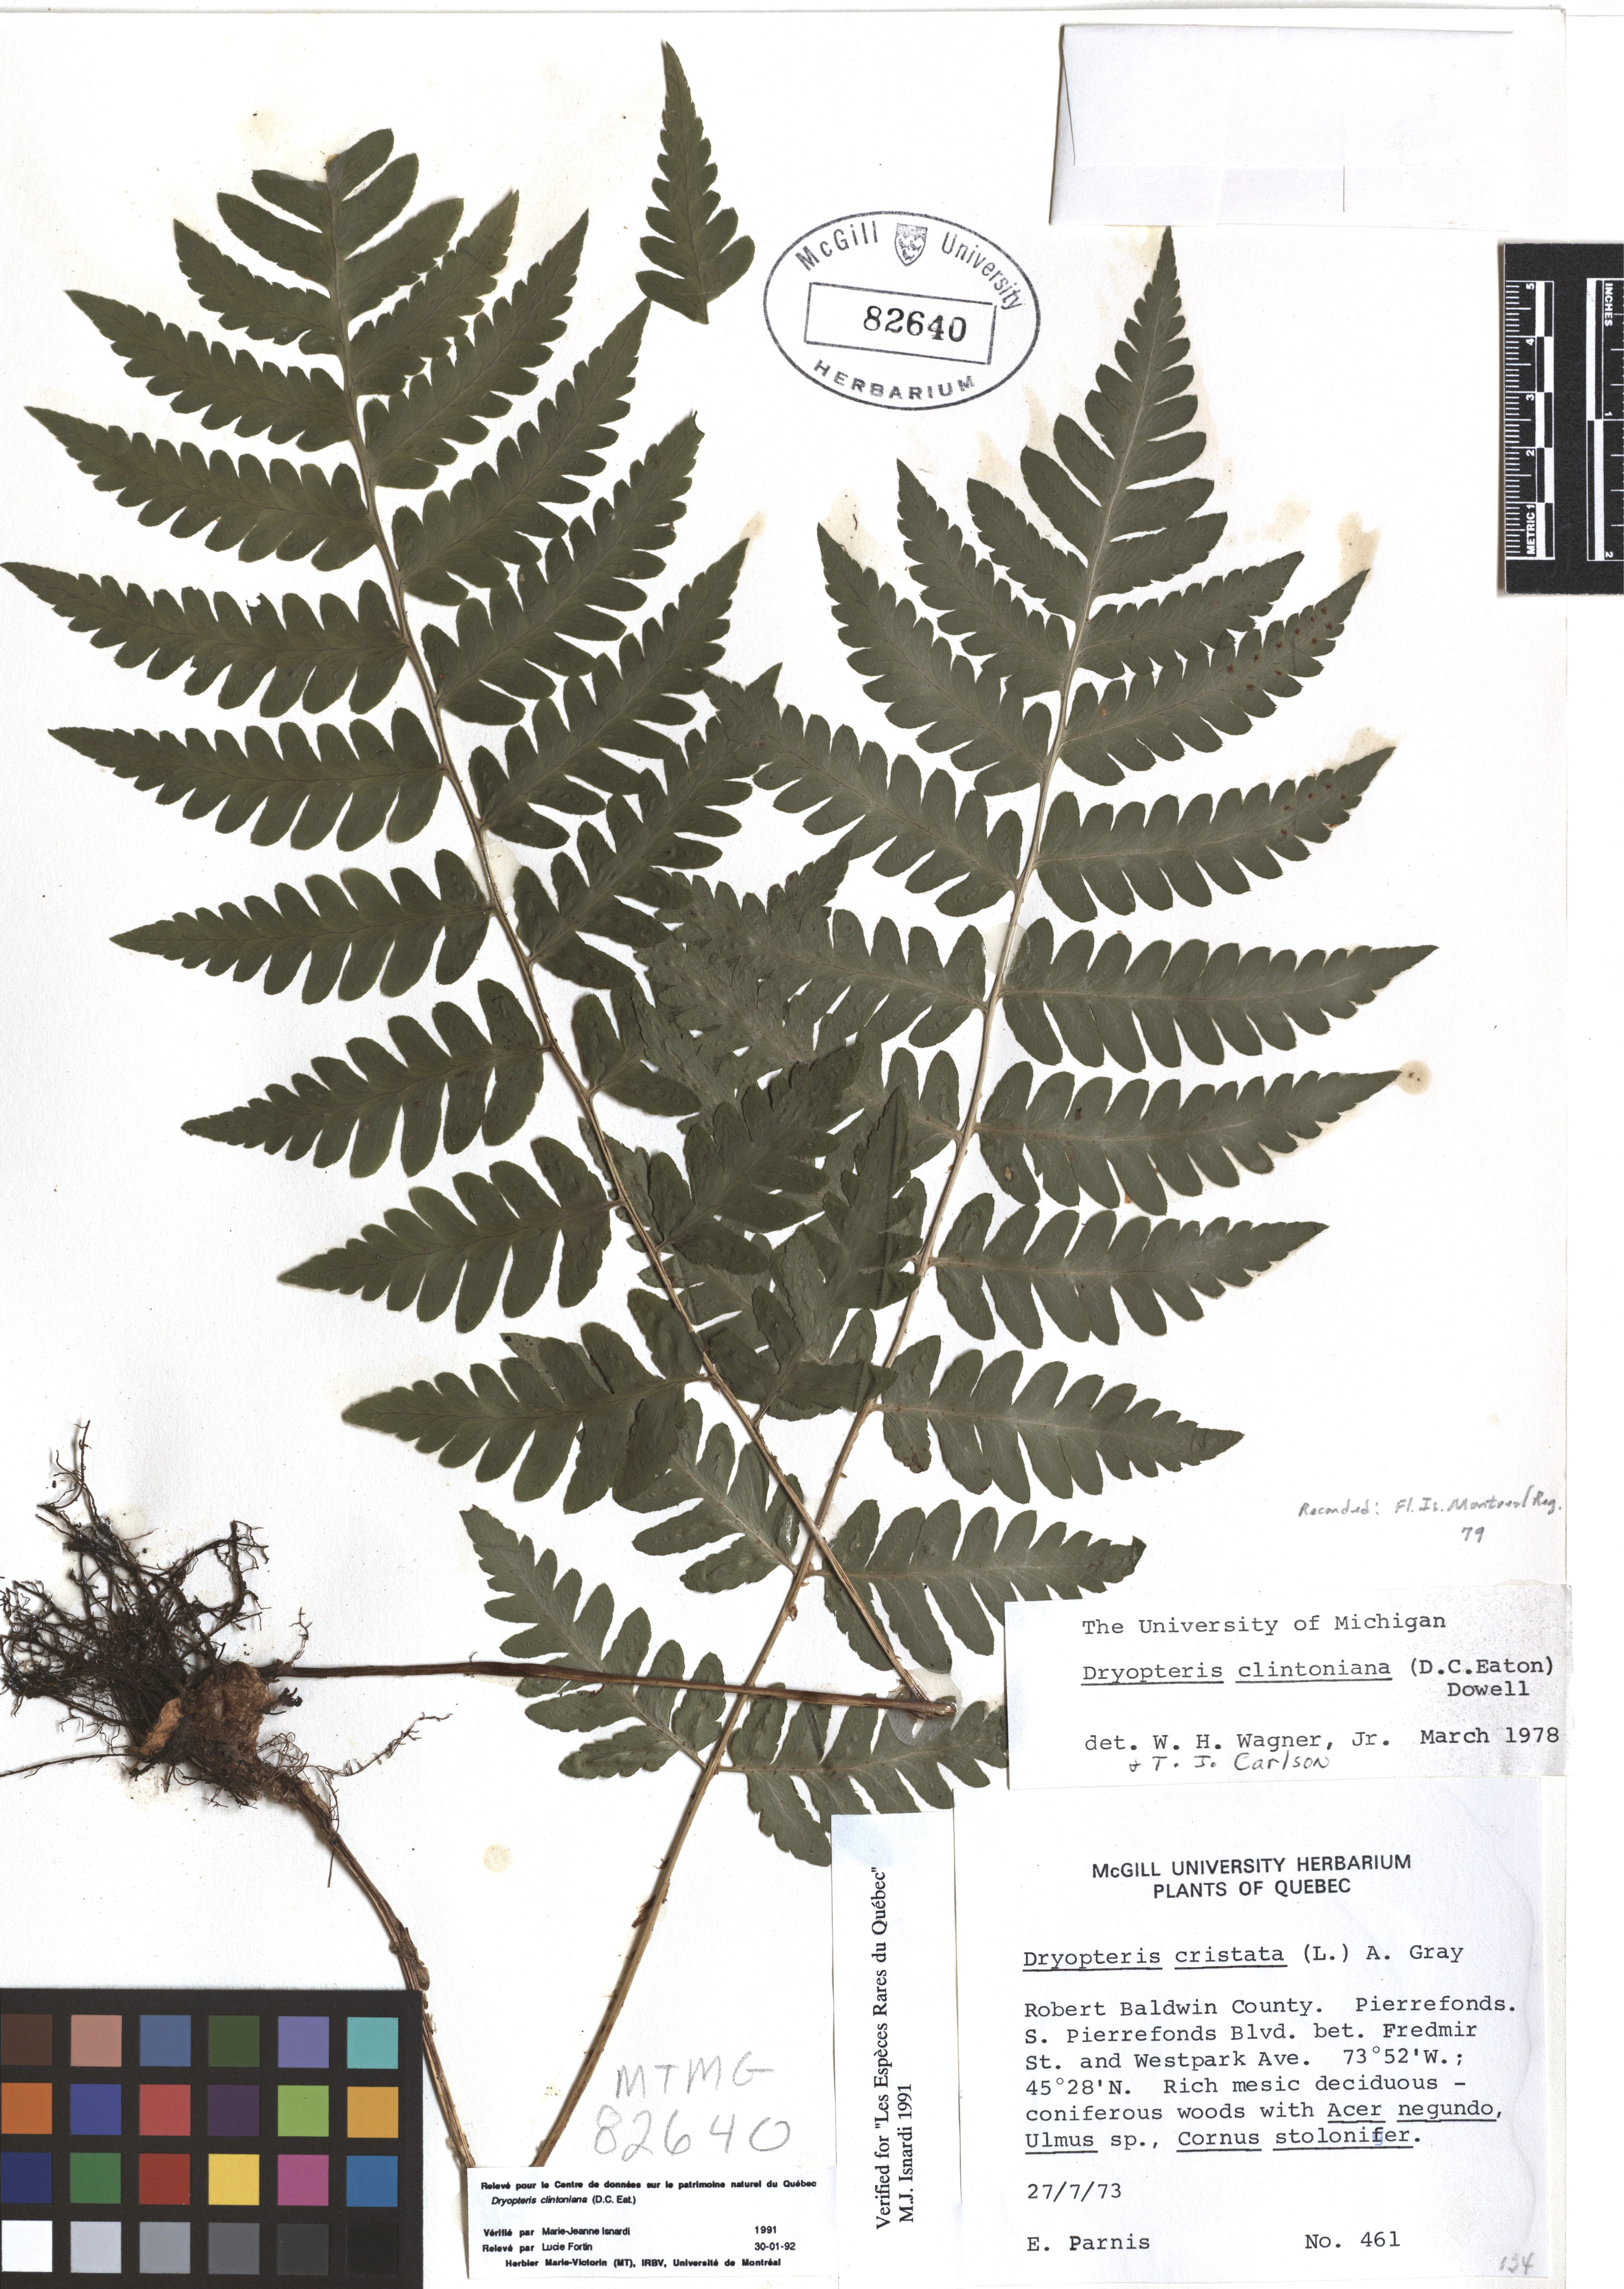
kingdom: Plantae
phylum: Tracheophyta
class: Polypodiopsida
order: Polypodiales
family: Dryopteridaceae
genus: Dryopteris
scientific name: Dryopteris clintoniana
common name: Clinton's wood fern
